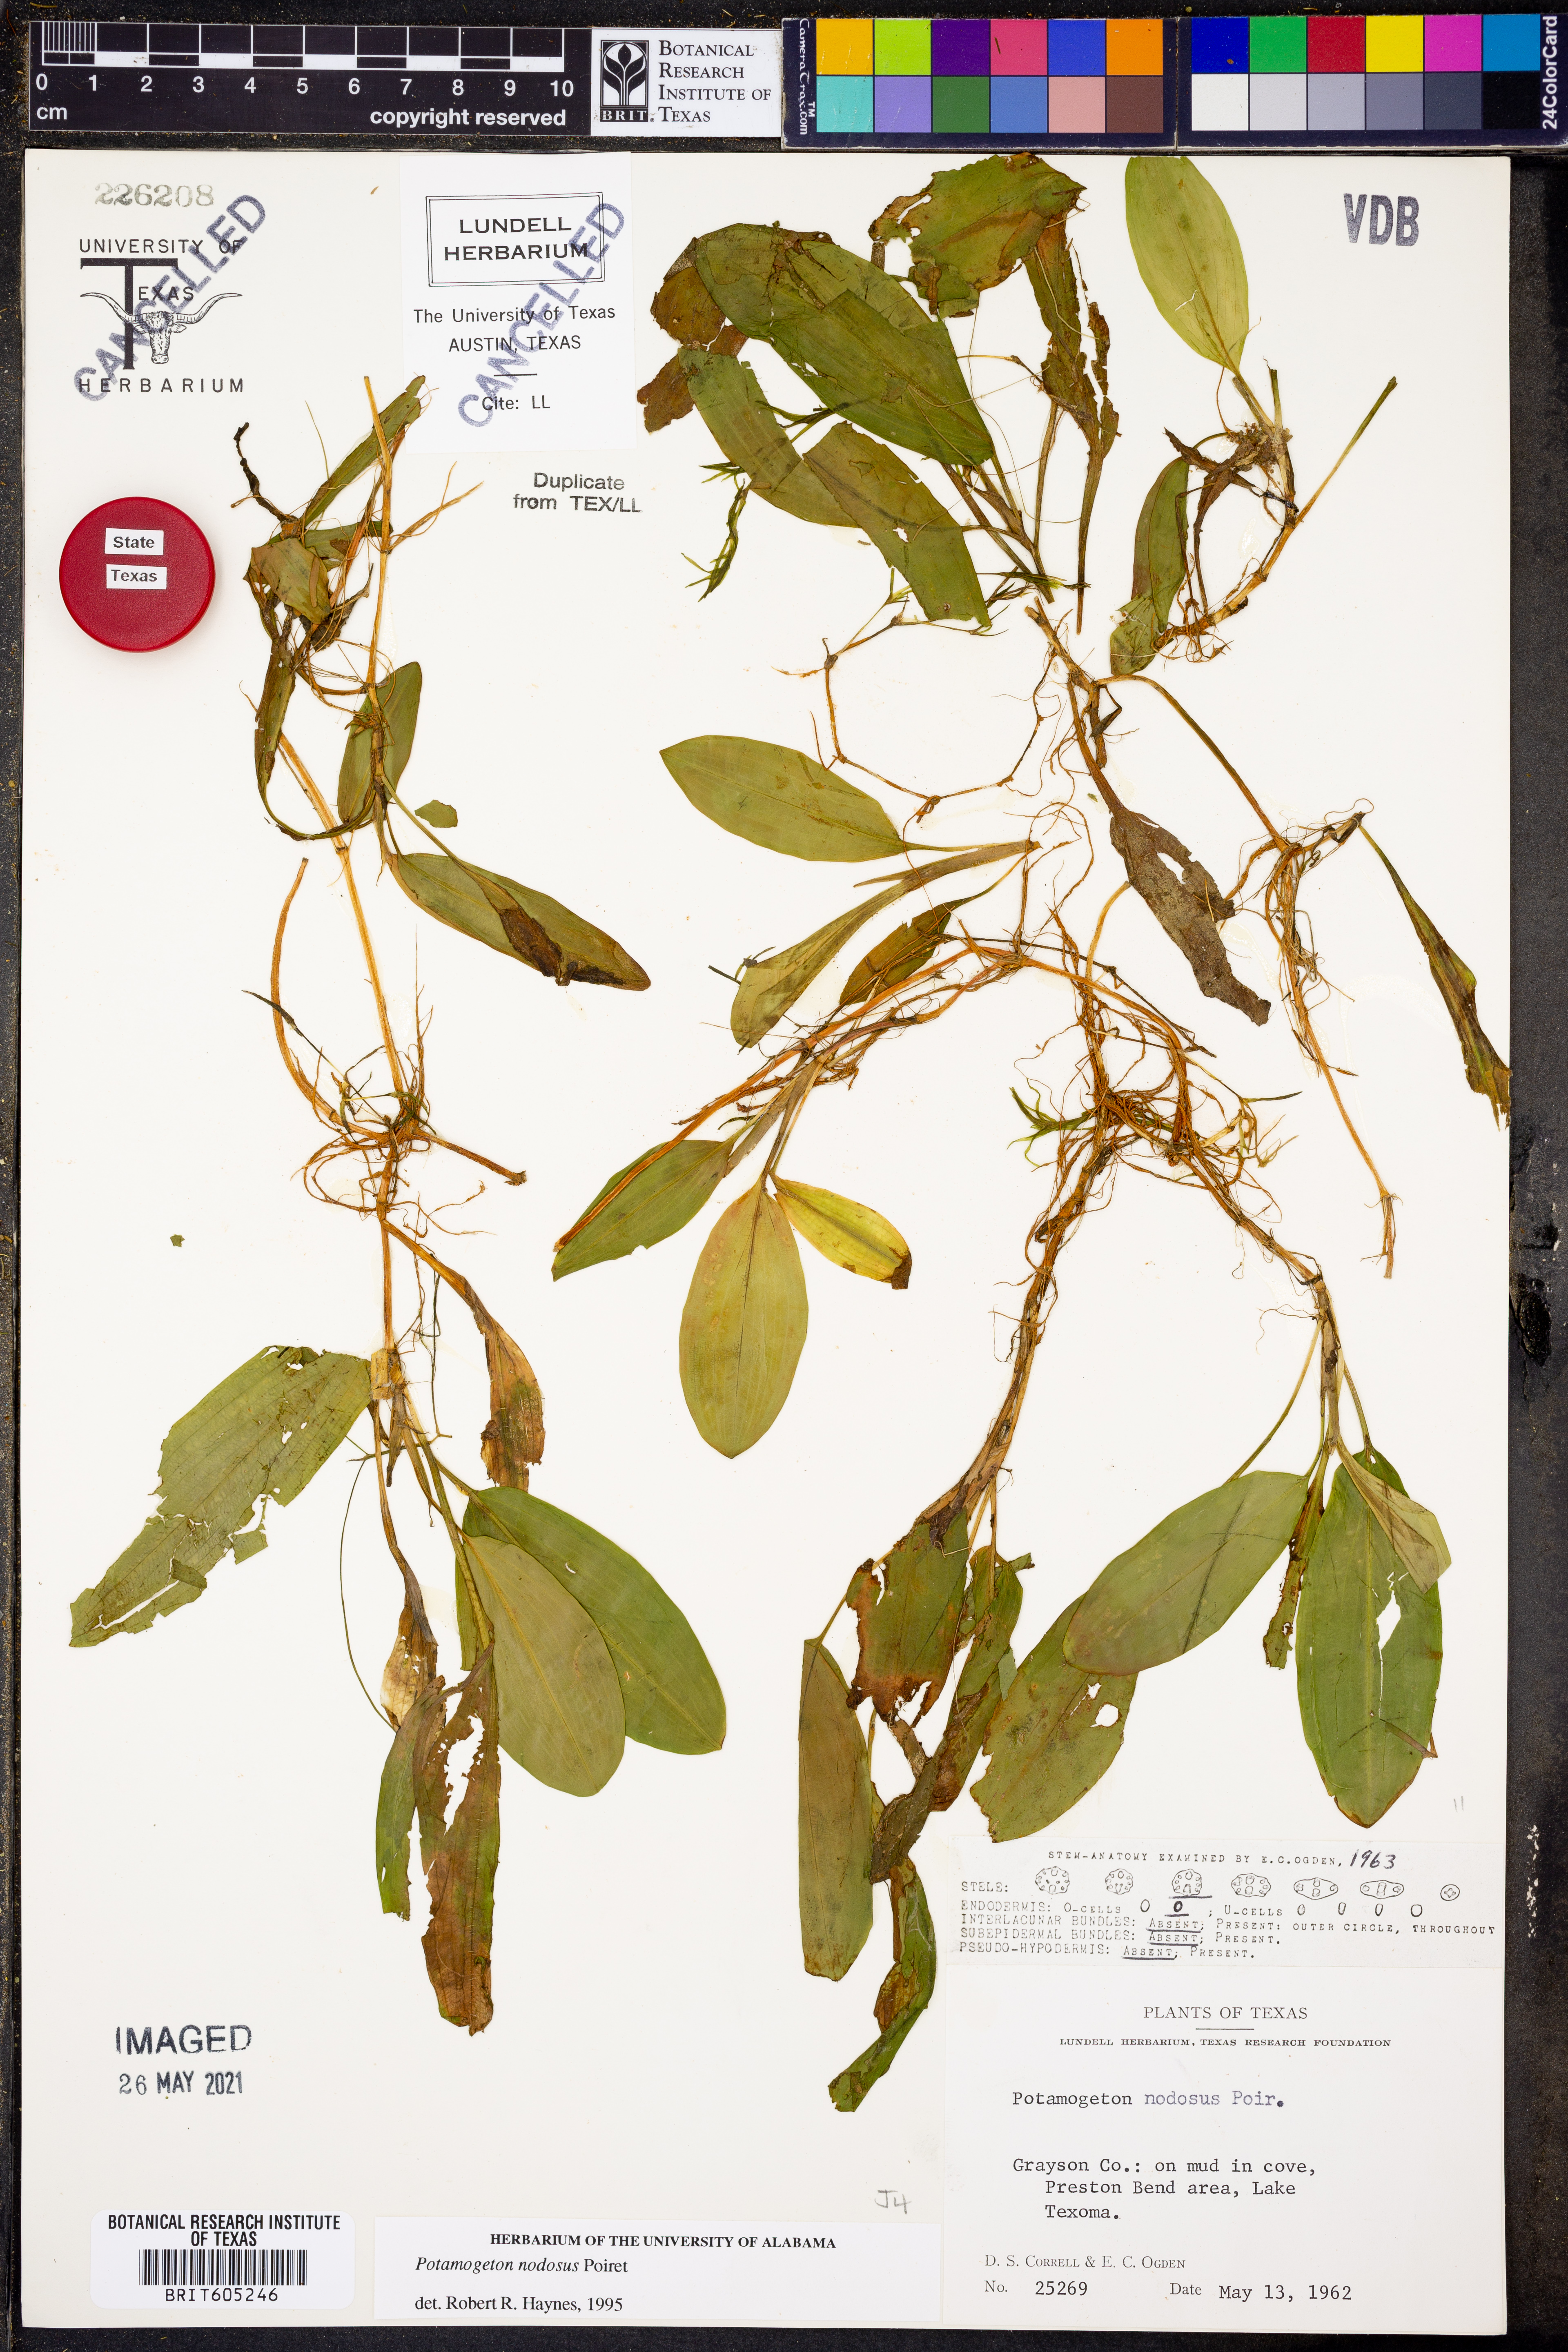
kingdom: Plantae
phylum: Tracheophyta
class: Liliopsida
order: Alismatales
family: Potamogetonaceae
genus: Potamogeton
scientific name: Potamogeton nodosus
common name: Loddon pondweed
